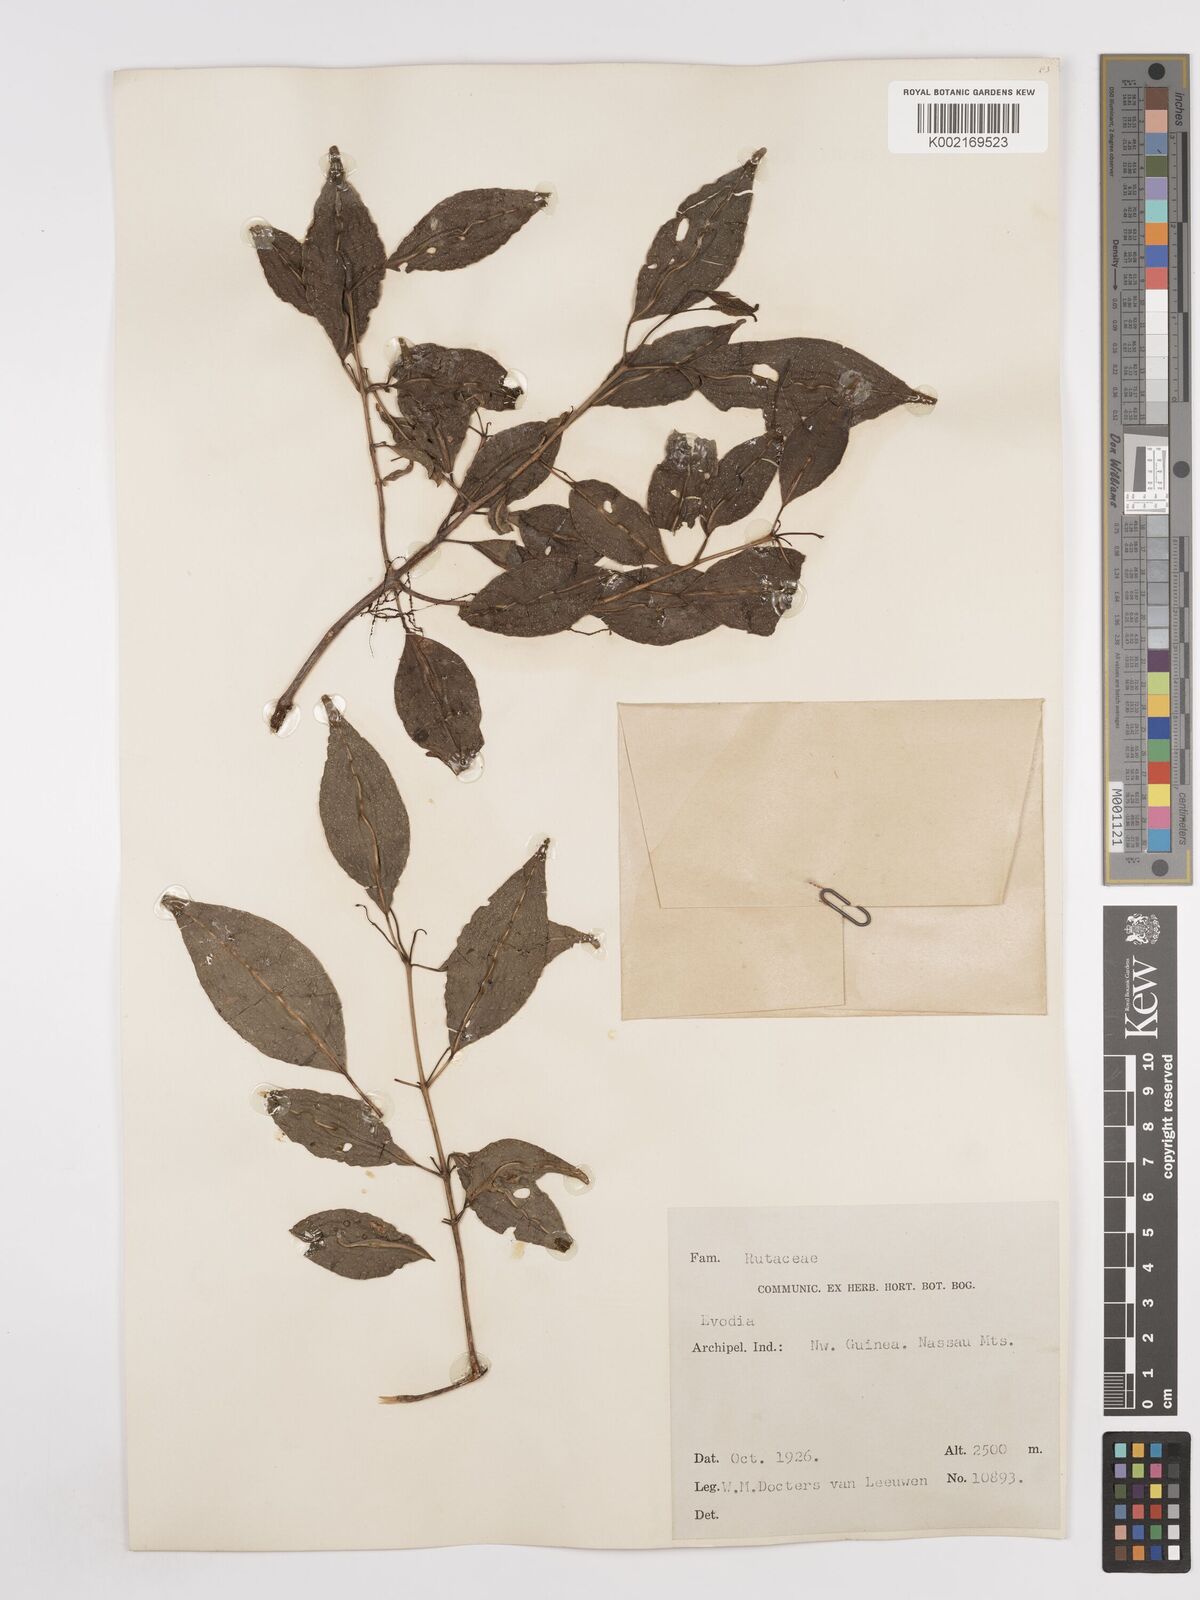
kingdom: Plantae
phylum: Tracheophyta
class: Magnoliopsida
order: Sapindales
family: Rutaceae
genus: Euodia
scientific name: Euodia
